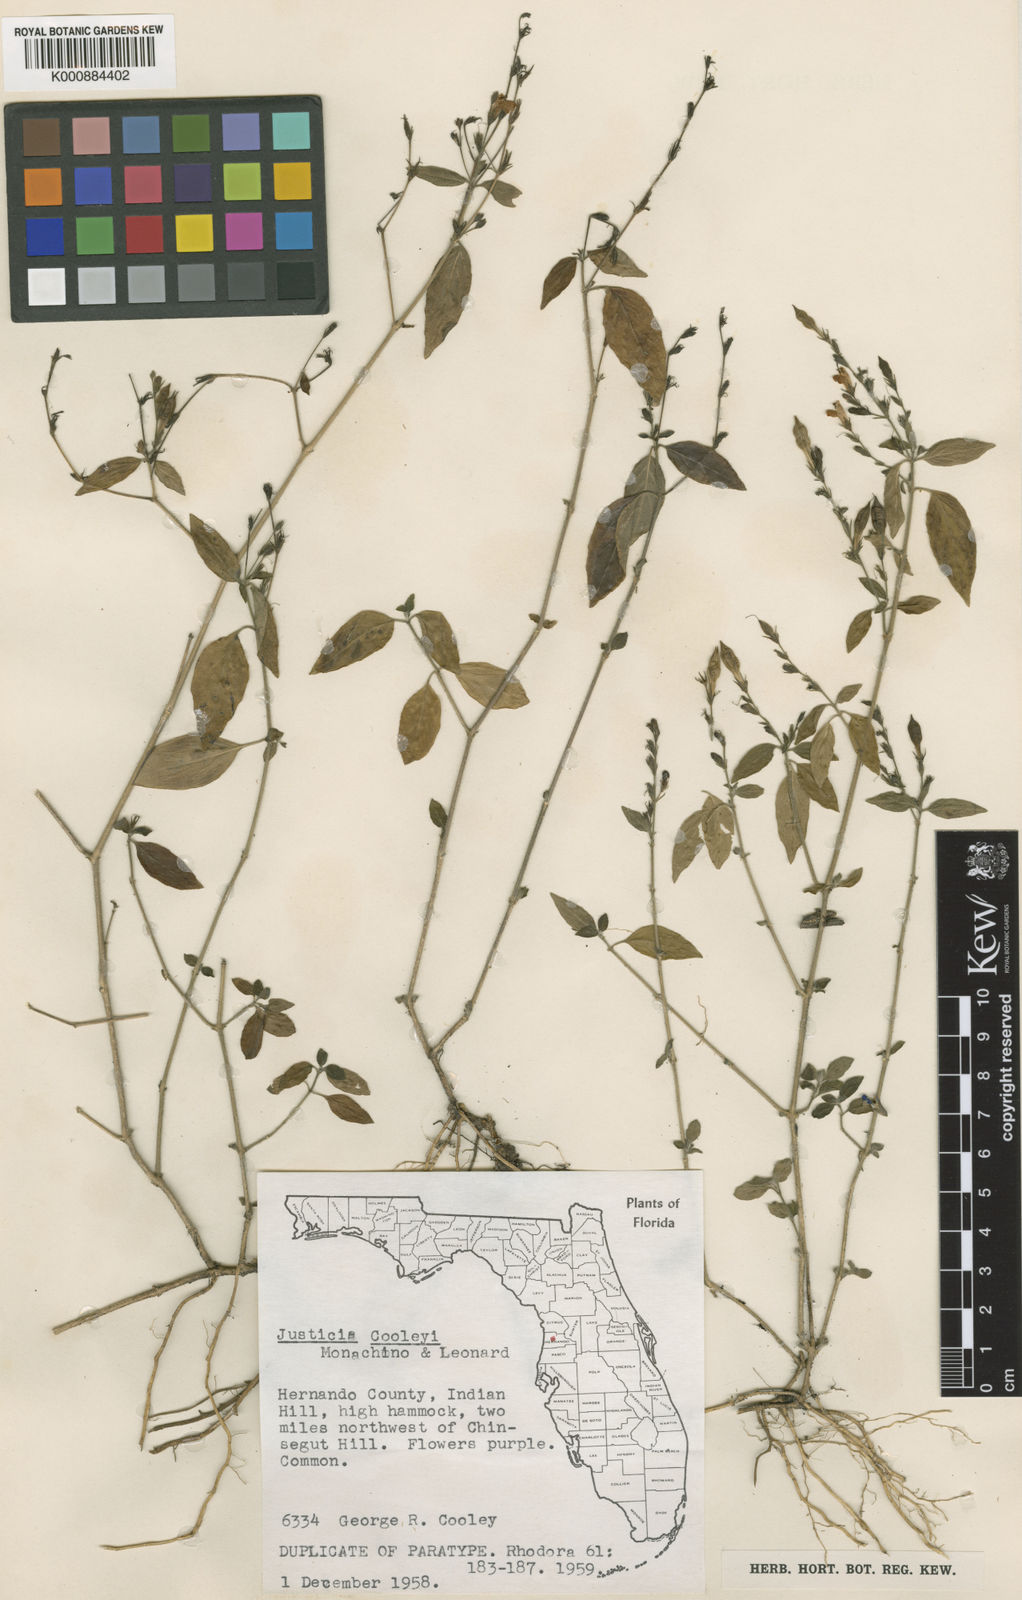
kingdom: Plantae
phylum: Tracheophyta
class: Magnoliopsida
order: Lamiales
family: Acanthaceae
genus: Justicia
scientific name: Justicia pringlei
